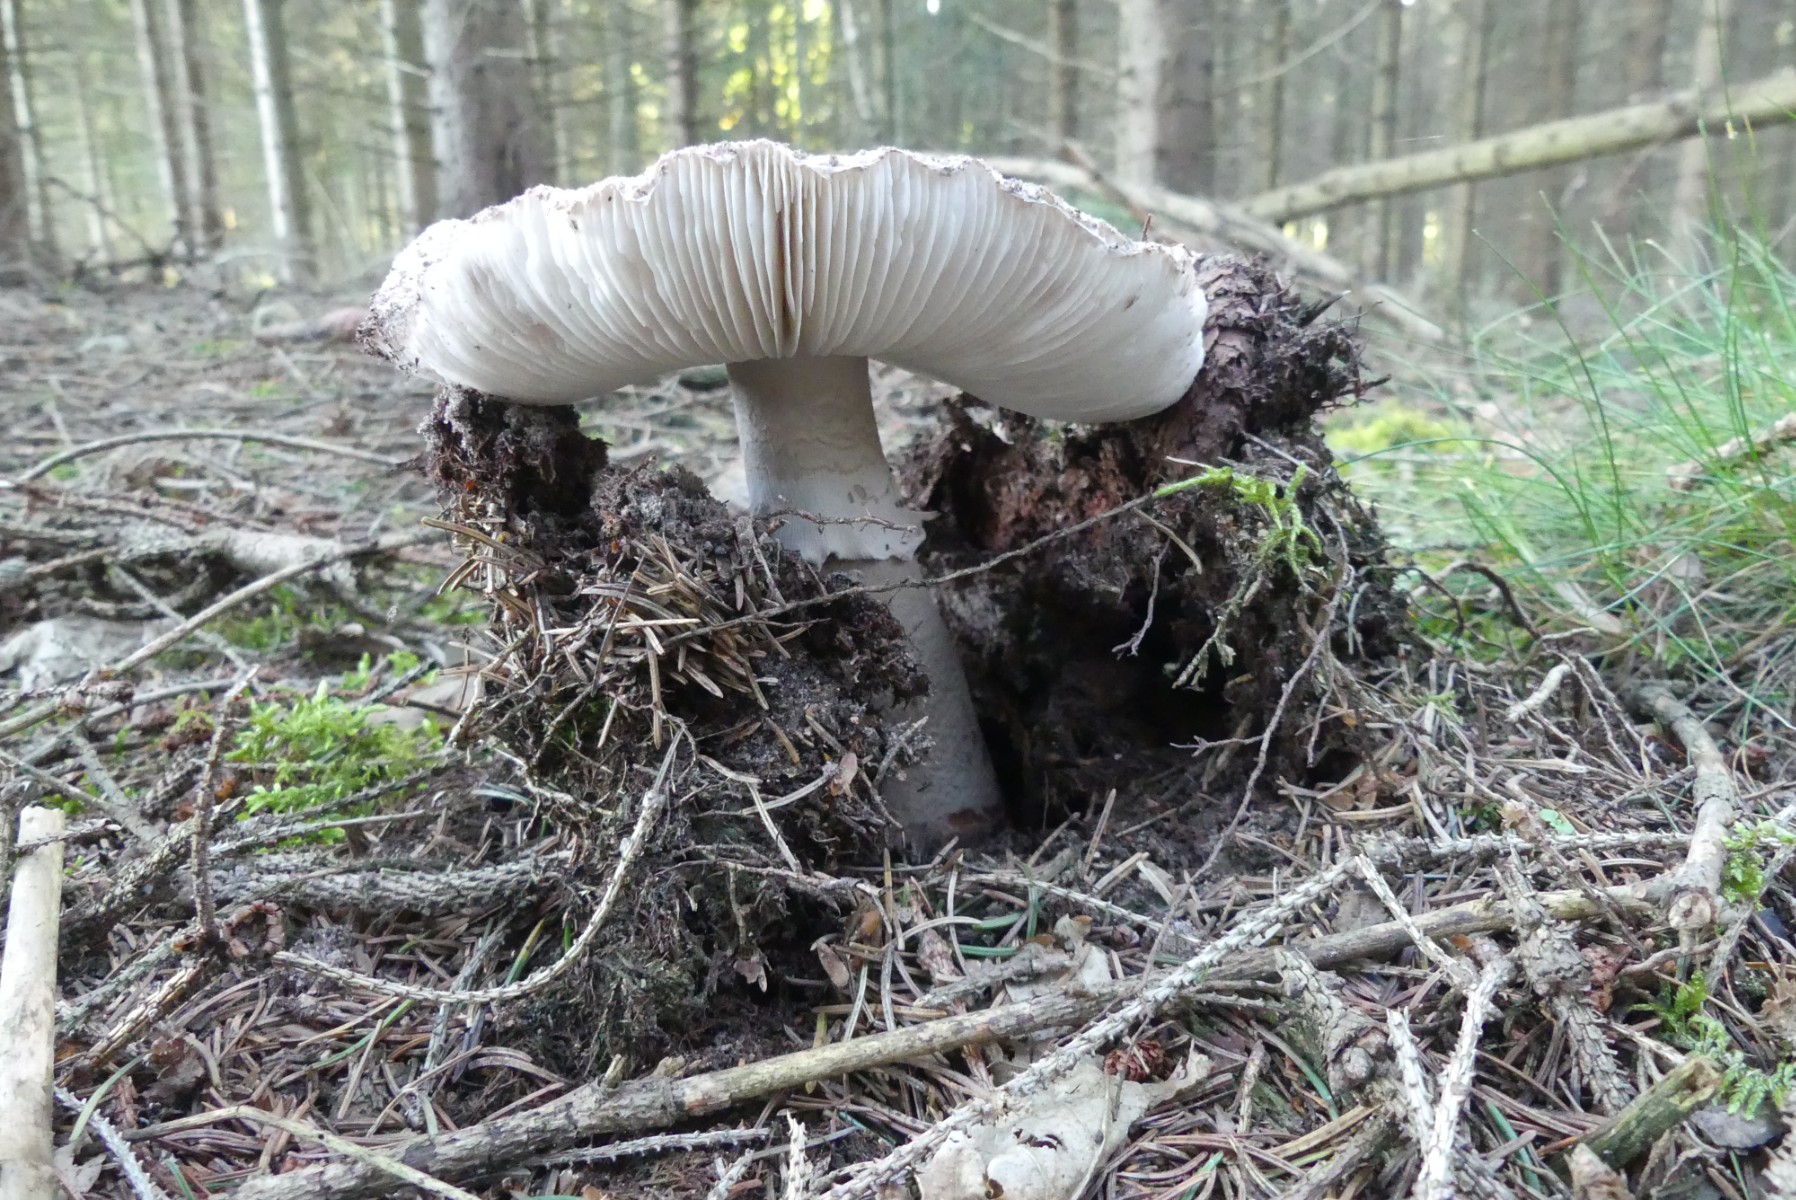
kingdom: Fungi
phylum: Basidiomycota
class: Agaricomycetes
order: Agaricales
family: Amanitaceae
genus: Amanita
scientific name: Amanita
